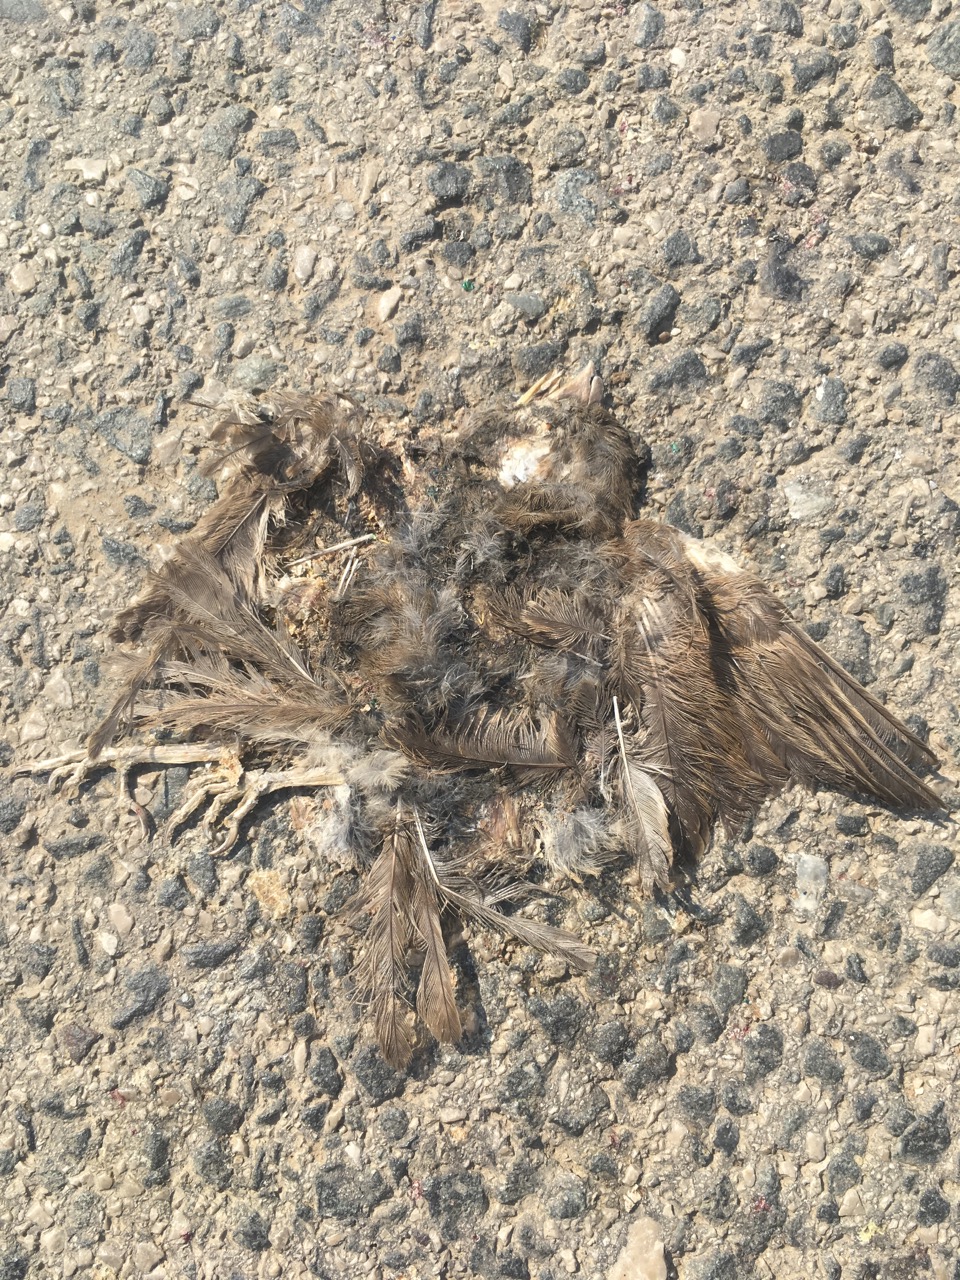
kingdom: Animalia
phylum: Chordata
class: Aves
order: Passeriformes
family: Passeridae
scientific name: Passeridae
